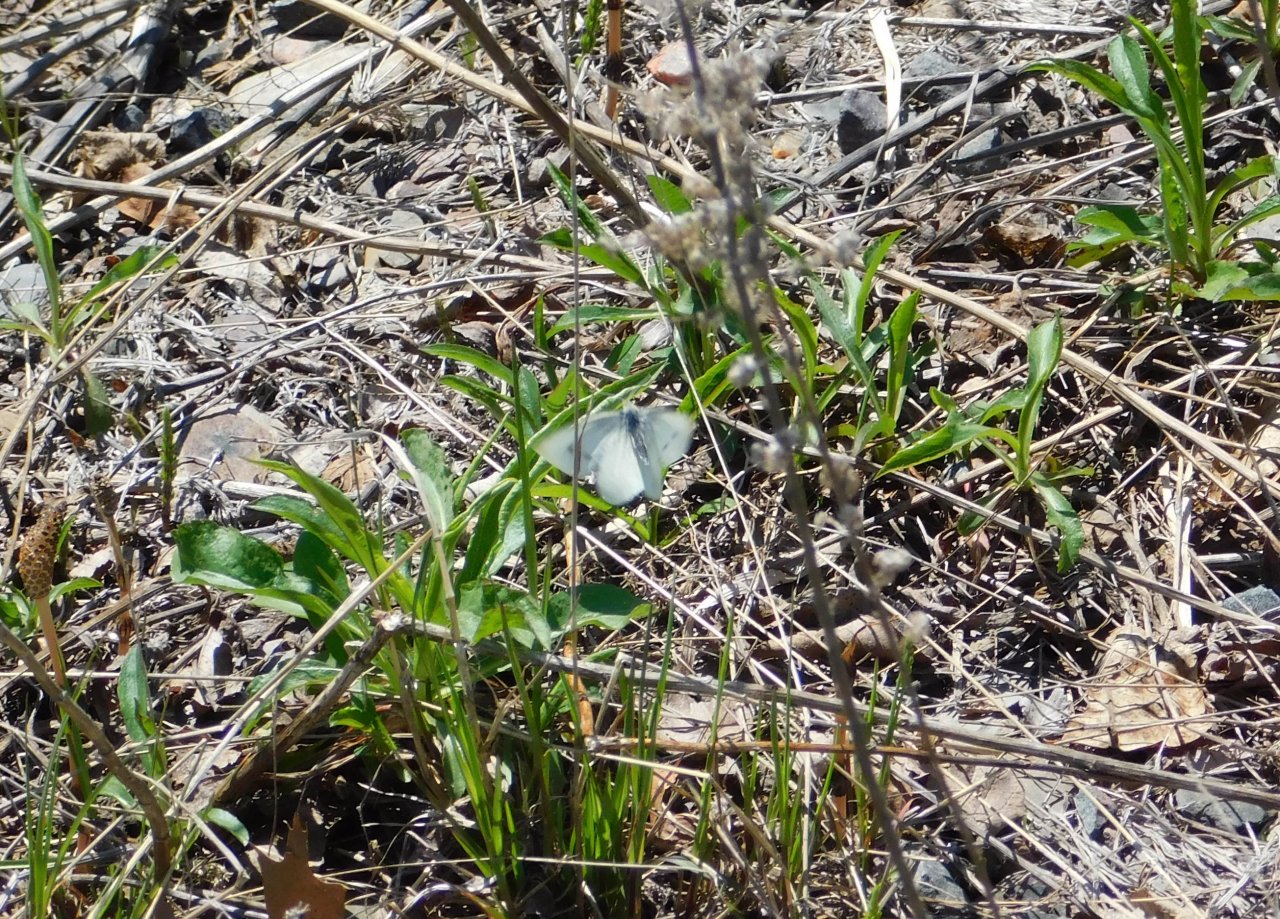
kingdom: Animalia
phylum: Arthropoda
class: Insecta
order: Lepidoptera
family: Pieridae
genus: Pieris
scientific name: Pieris rapae
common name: Cabbage White
